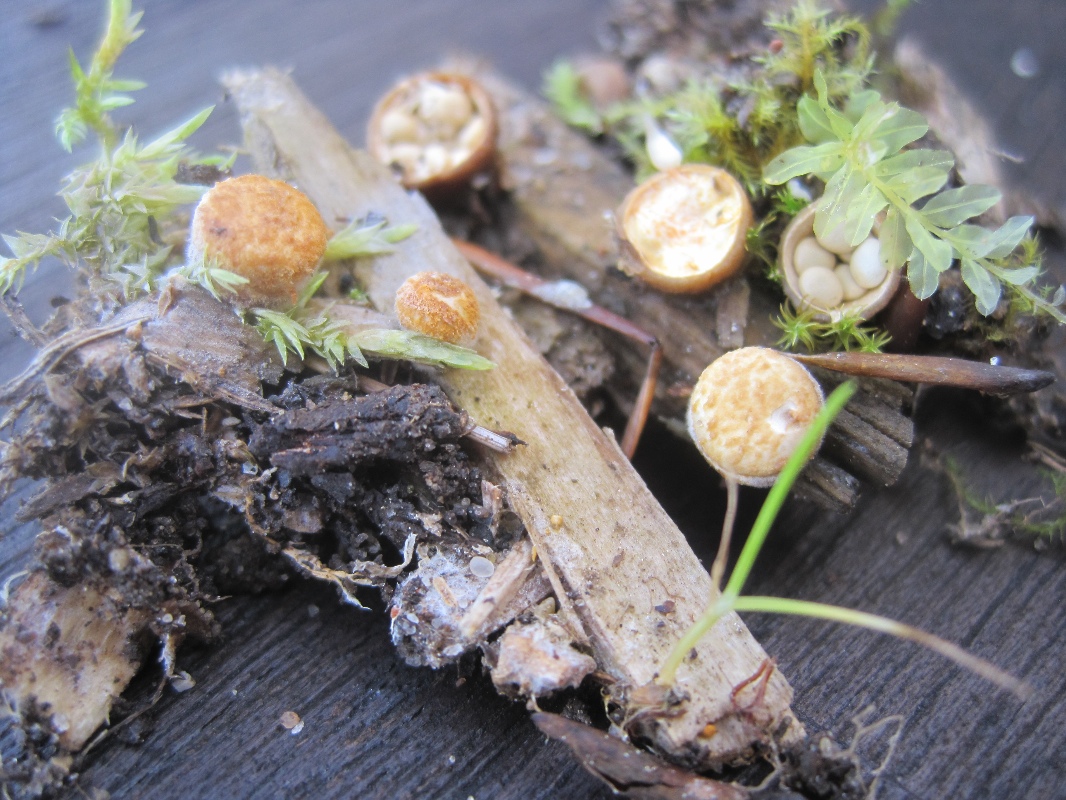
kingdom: Fungi
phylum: Basidiomycota
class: Agaricomycetes
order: Agaricales
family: Nidulariaceae
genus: Crucibulum
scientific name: Crucibulum crucibuliforme
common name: krukkesvamp
